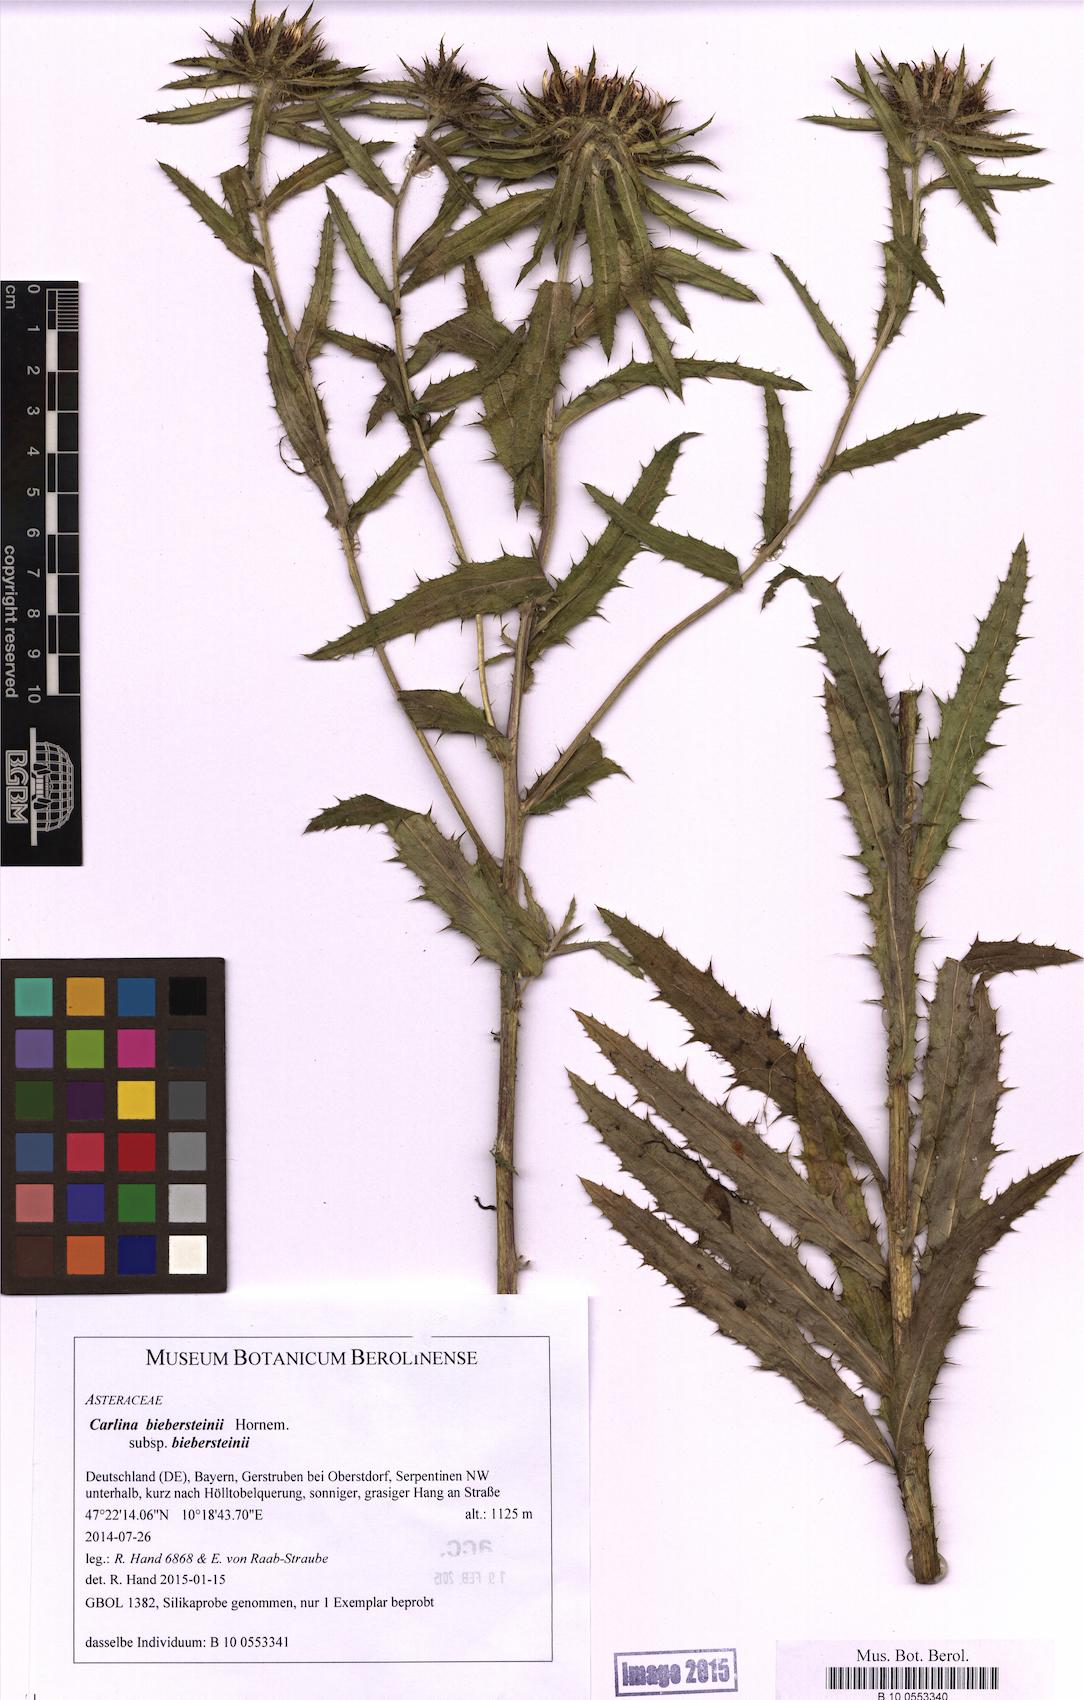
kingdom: Plantae
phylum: Tracheophyta
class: Magnoliopsida
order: Asterales
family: Asteraceae
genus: Carlina
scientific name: Carlina biebersteinii
